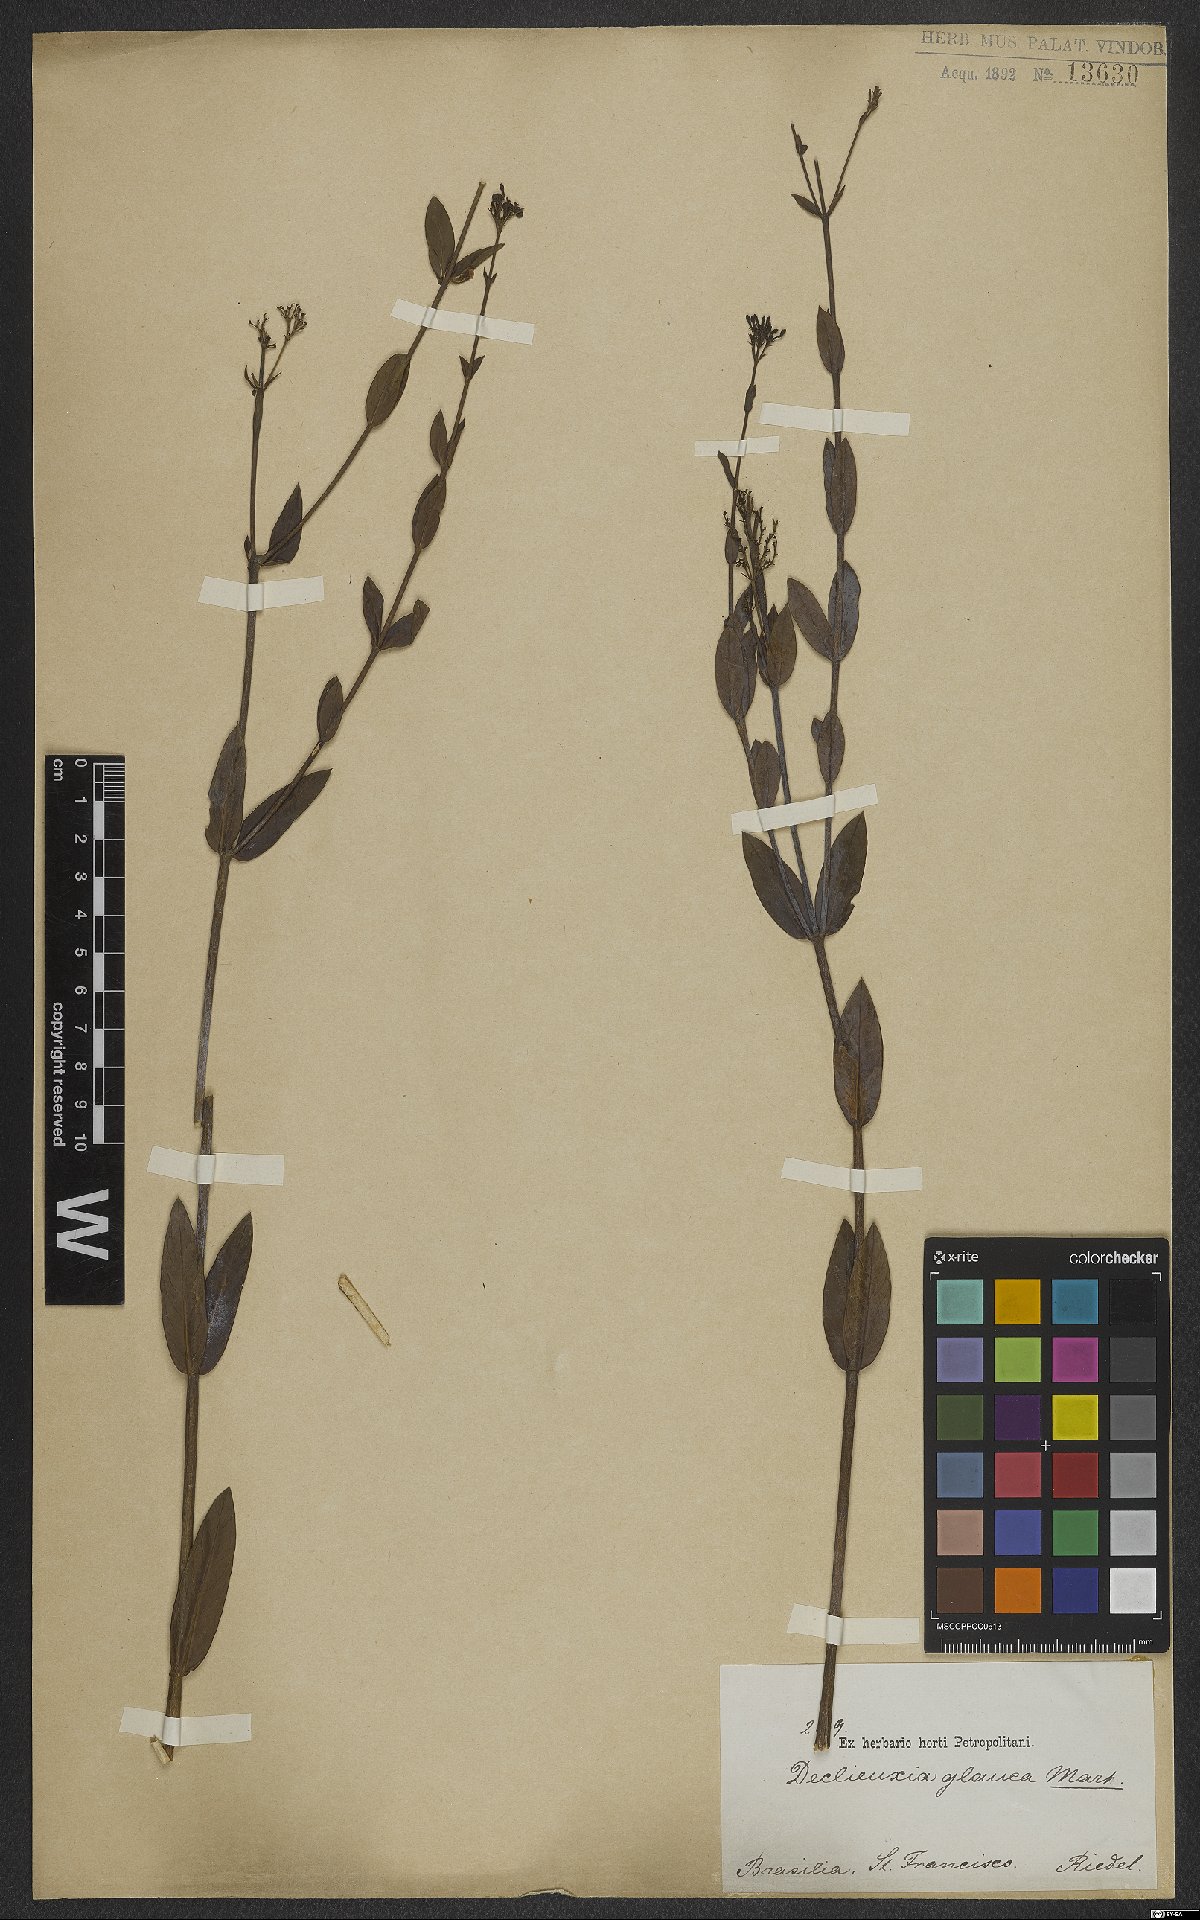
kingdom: Plantae
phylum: Tracheophyta
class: Magnoliopsida
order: Gentianales
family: Rubiaceae
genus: Declieuxia
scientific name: Declieuxia fruticosa
